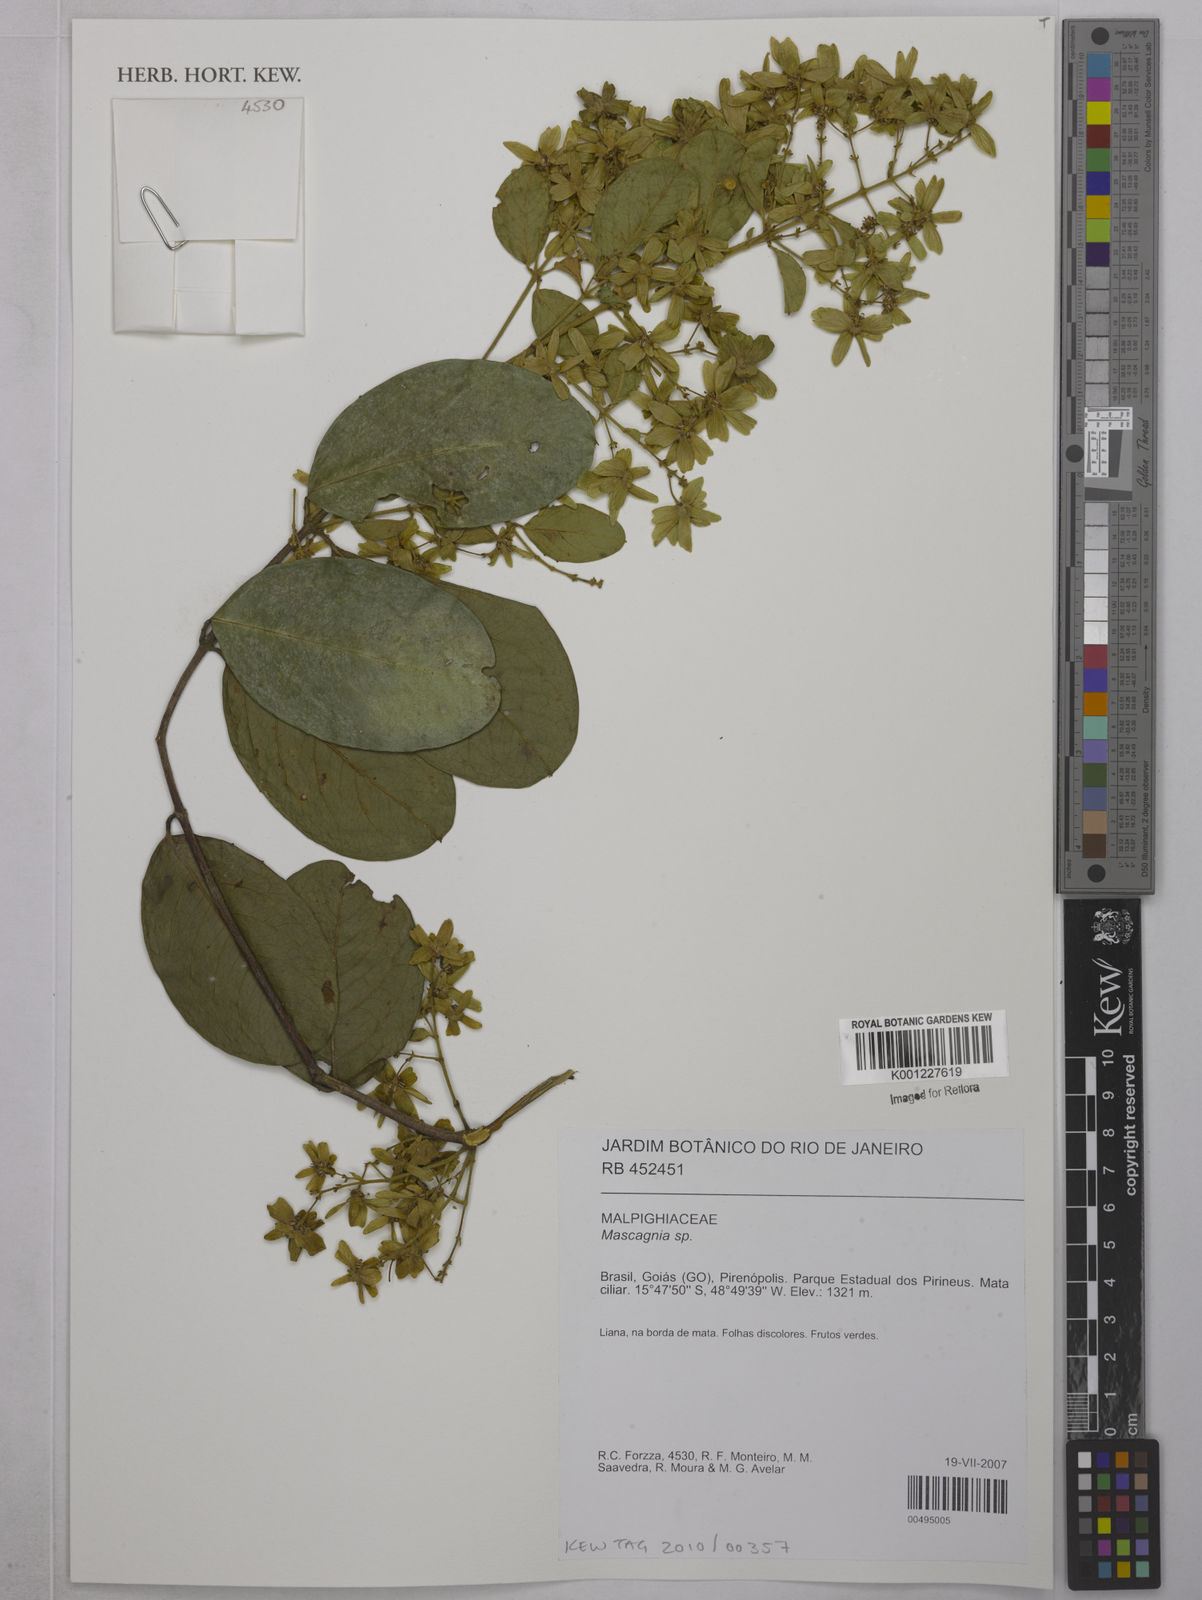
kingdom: Plantae
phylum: Tracheophyta
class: Magnoliopsida
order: Malpighiales
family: Malpighiaceae
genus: Mascagnia
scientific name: Mascagnia
